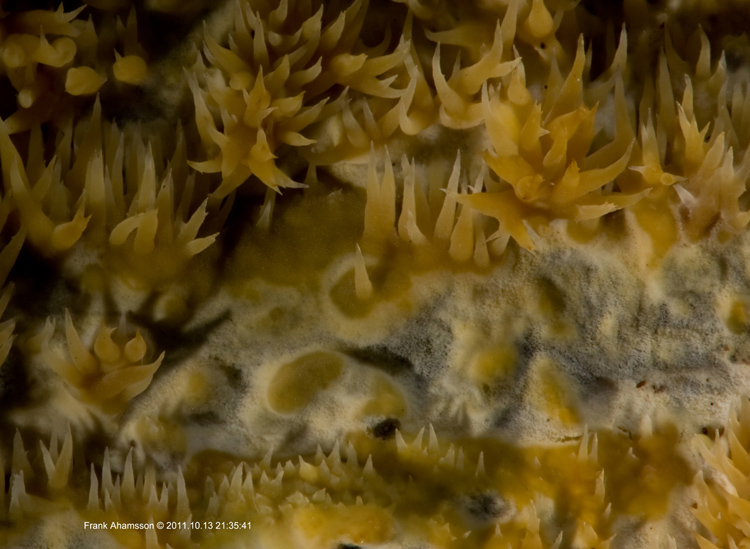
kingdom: Fungi
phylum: Basidiomycota
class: Agaricomycetes
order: Polyporales
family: Meruliaceae
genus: Mycoacia
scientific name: Mycoacia uda
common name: citrongul vokspig
